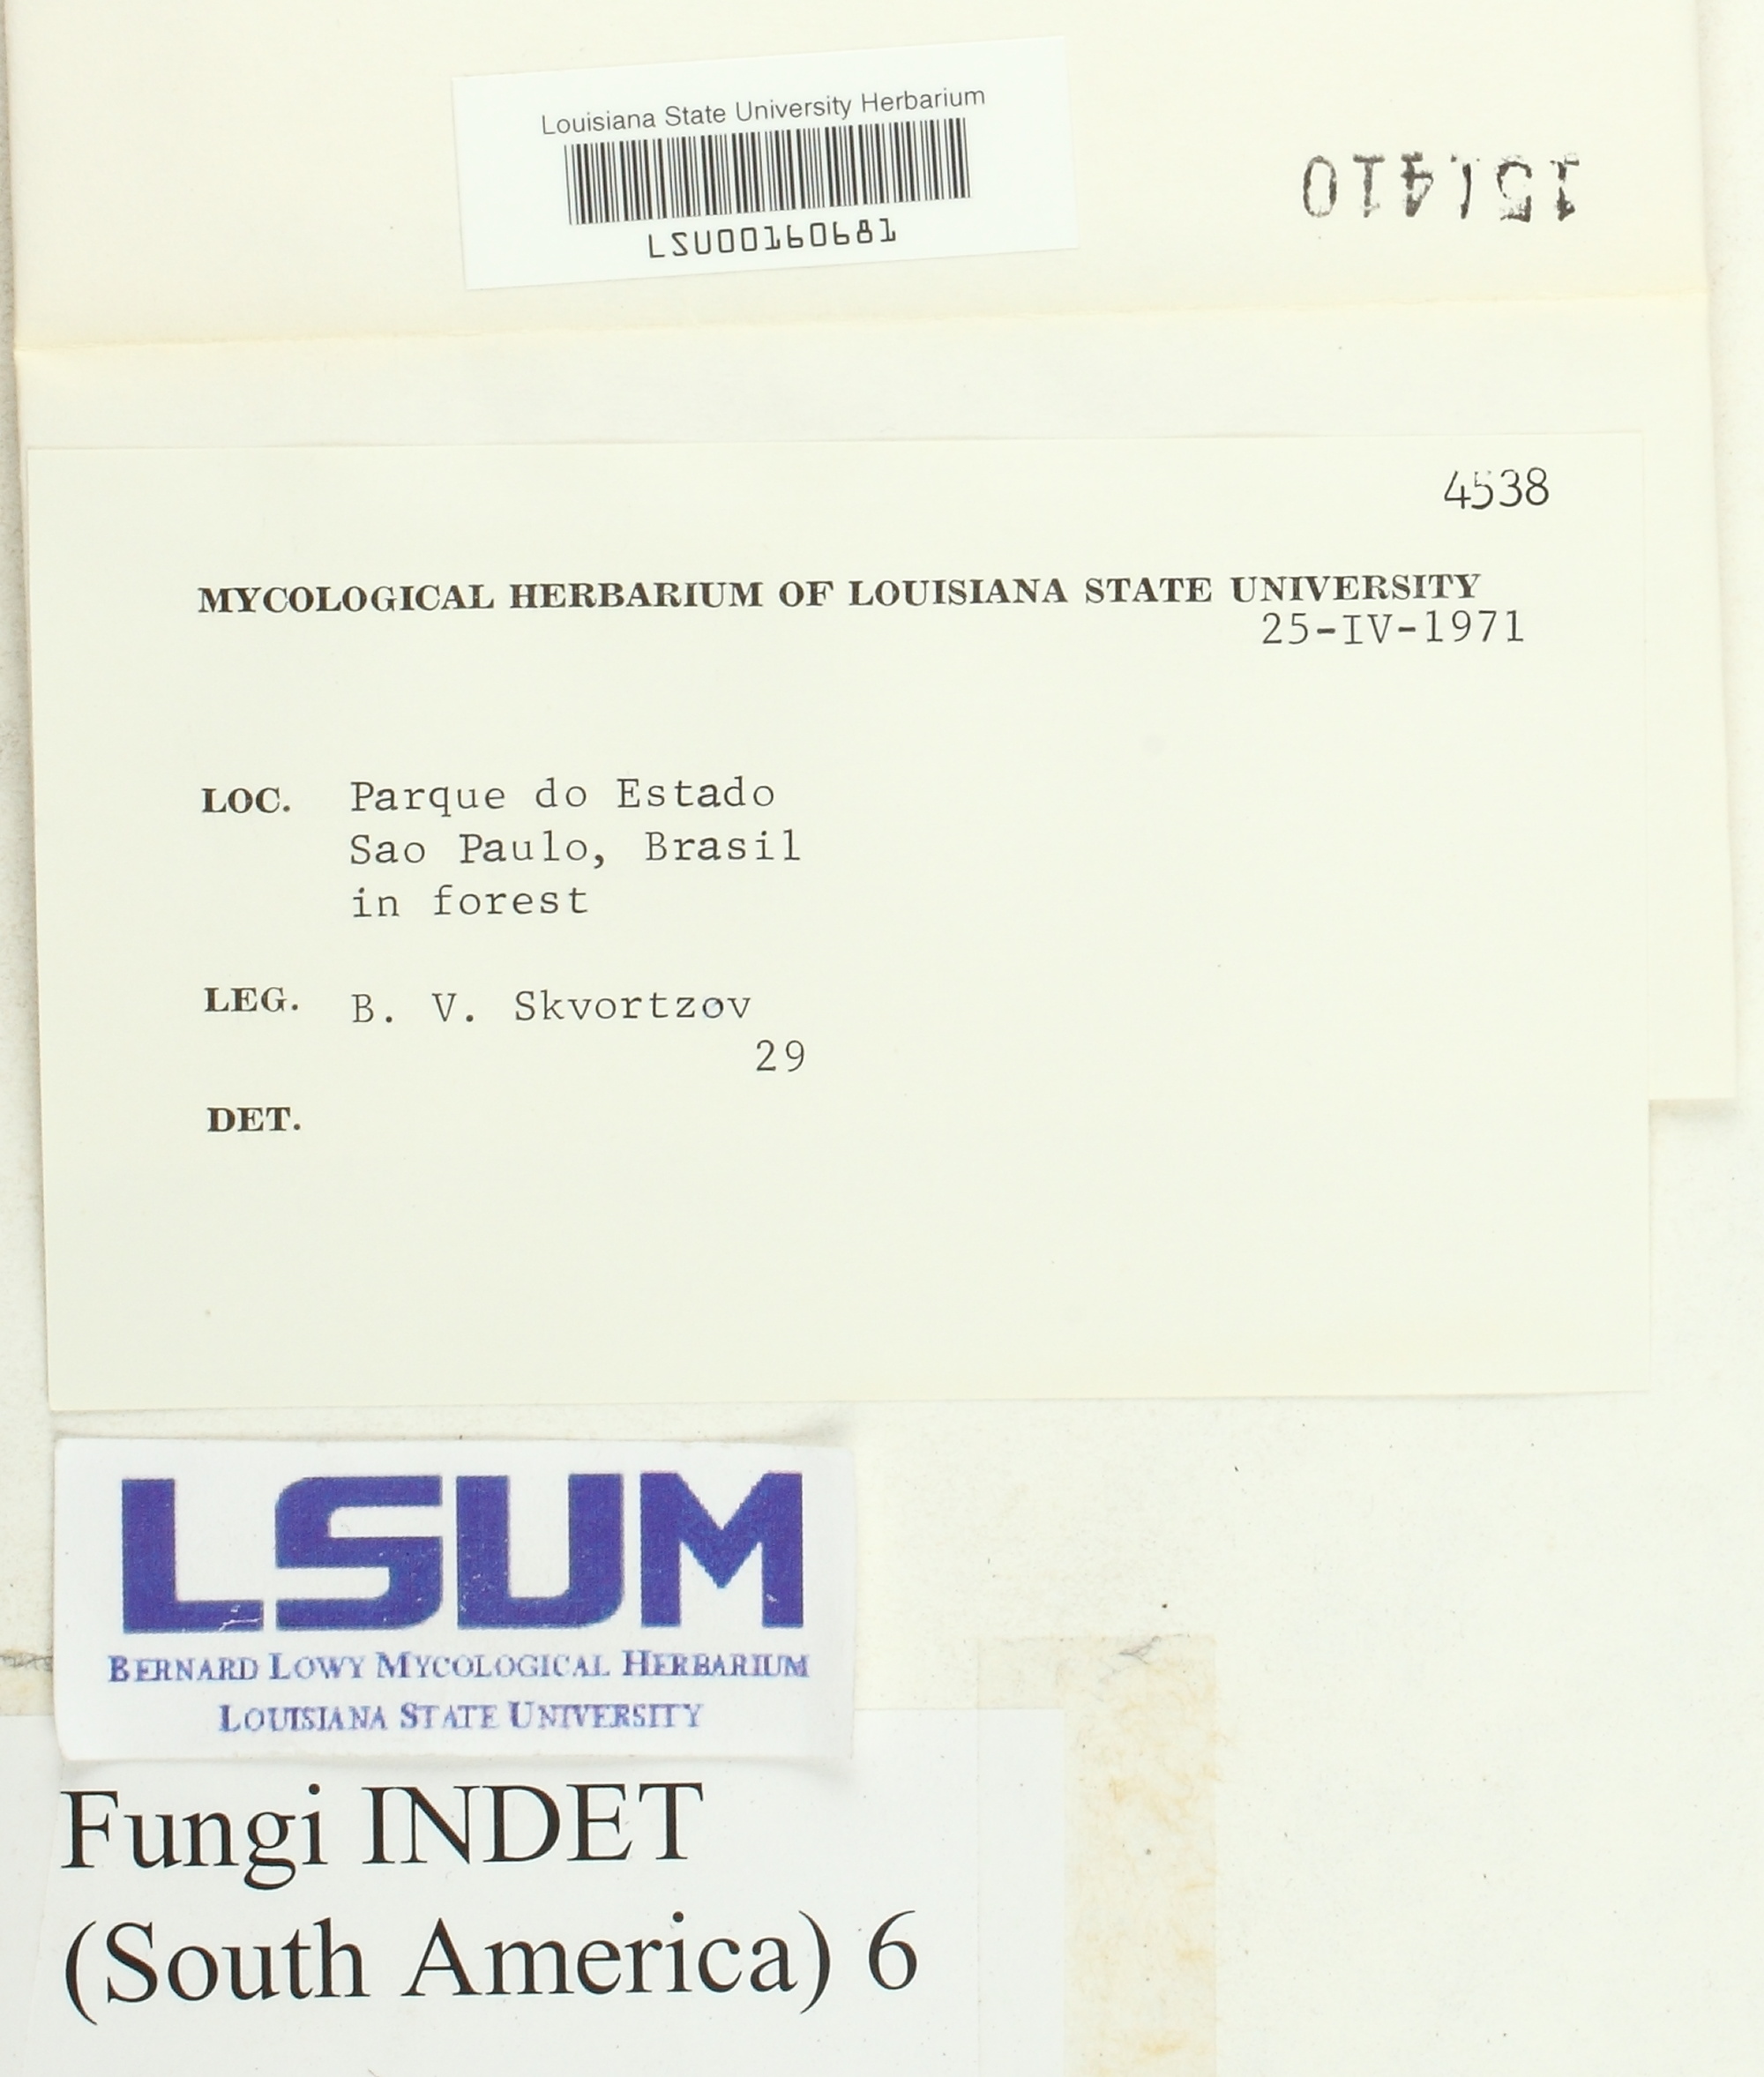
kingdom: Fungi
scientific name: Fungi
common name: Fungi
